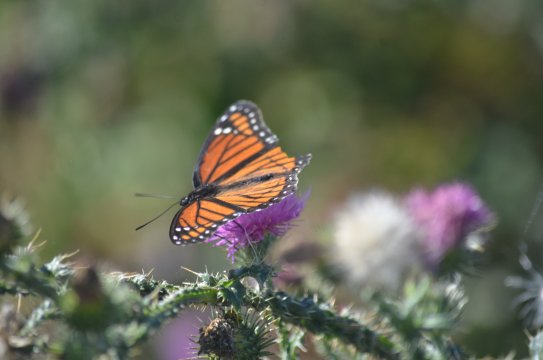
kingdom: Animalia
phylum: Arthropoda
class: Insecta
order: Lepidoptera
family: Nymphalidae
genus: Limenitis
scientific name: Limenitis archippus
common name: Viceroy
